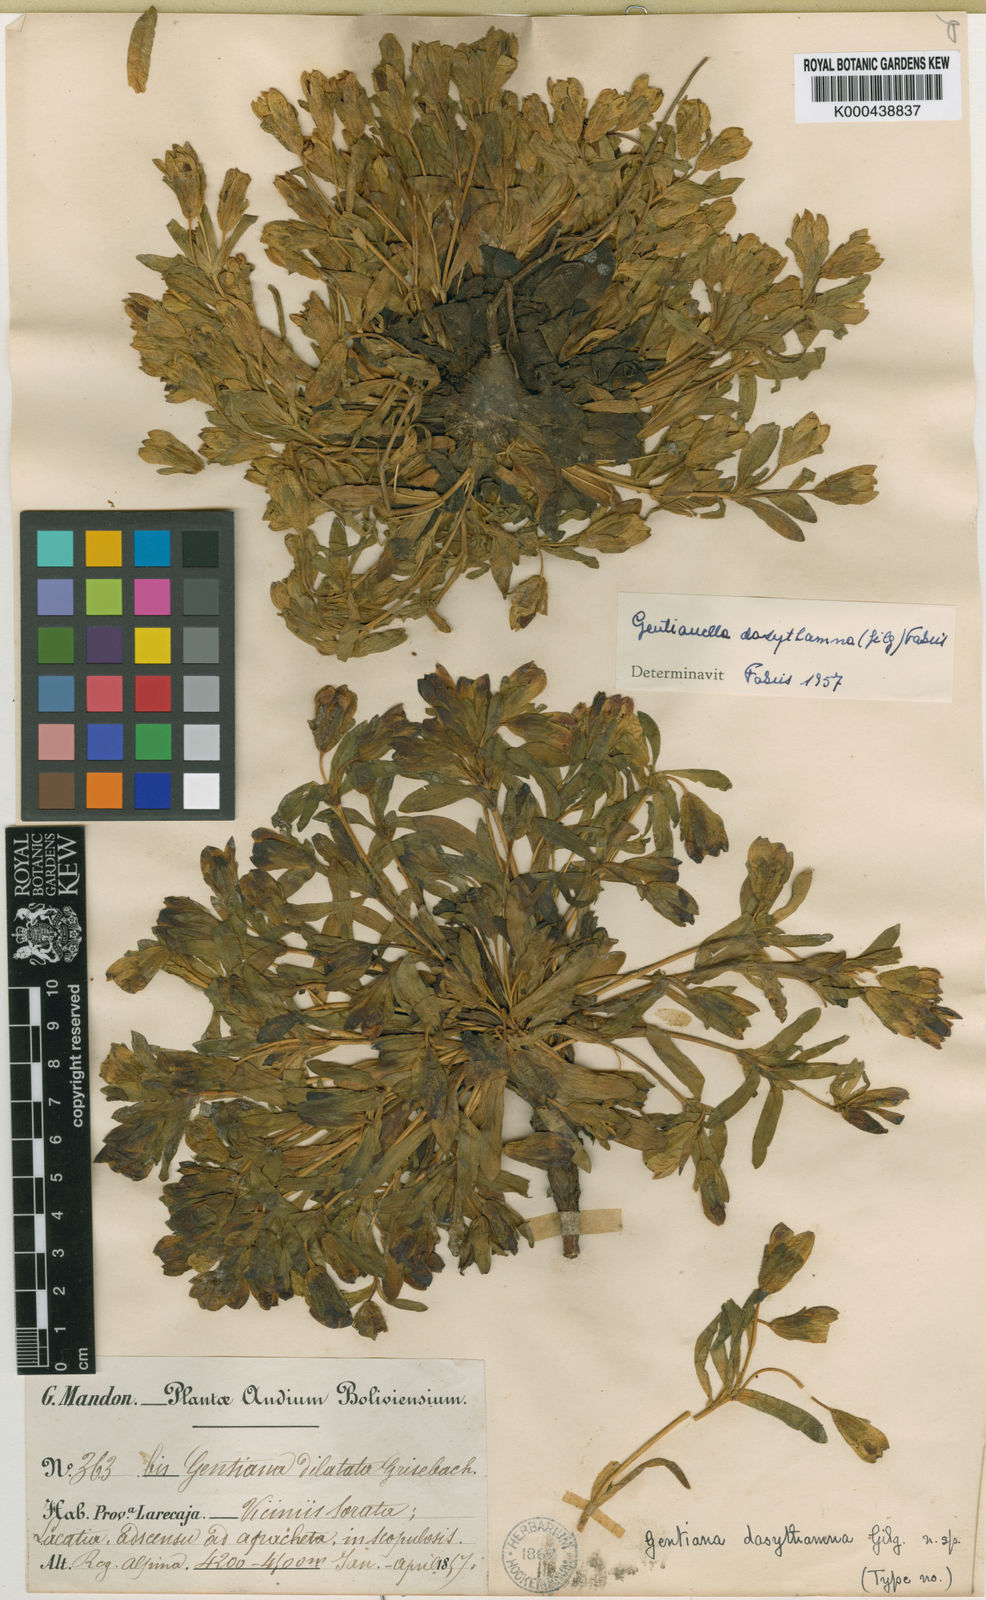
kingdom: Plantae
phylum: Tracheophyta
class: Magnoliopsida
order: Gentianales
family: Gentianaceae
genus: Gentianella
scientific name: Gentianella
